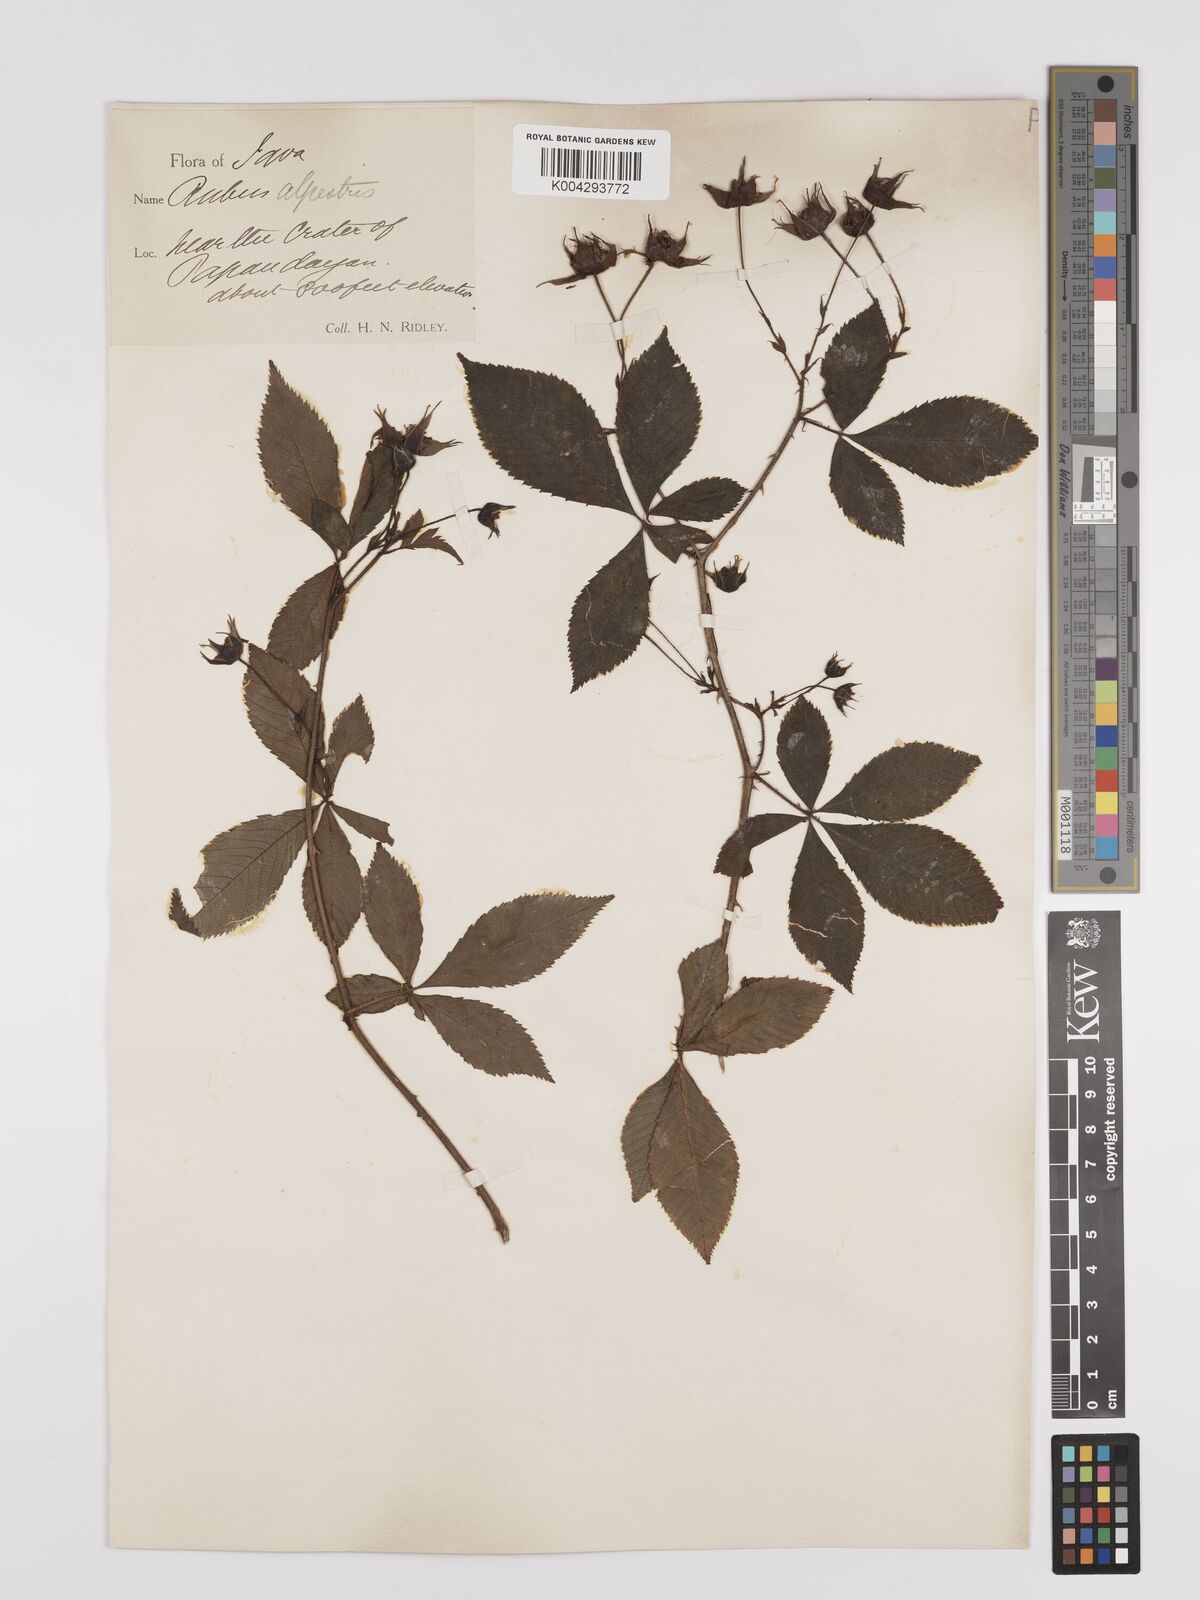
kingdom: Plantae
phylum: Tracheophyta
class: Magnoliopsida
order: Rosales
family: Rosaceae
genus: Rubus
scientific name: Rubus alpestris
